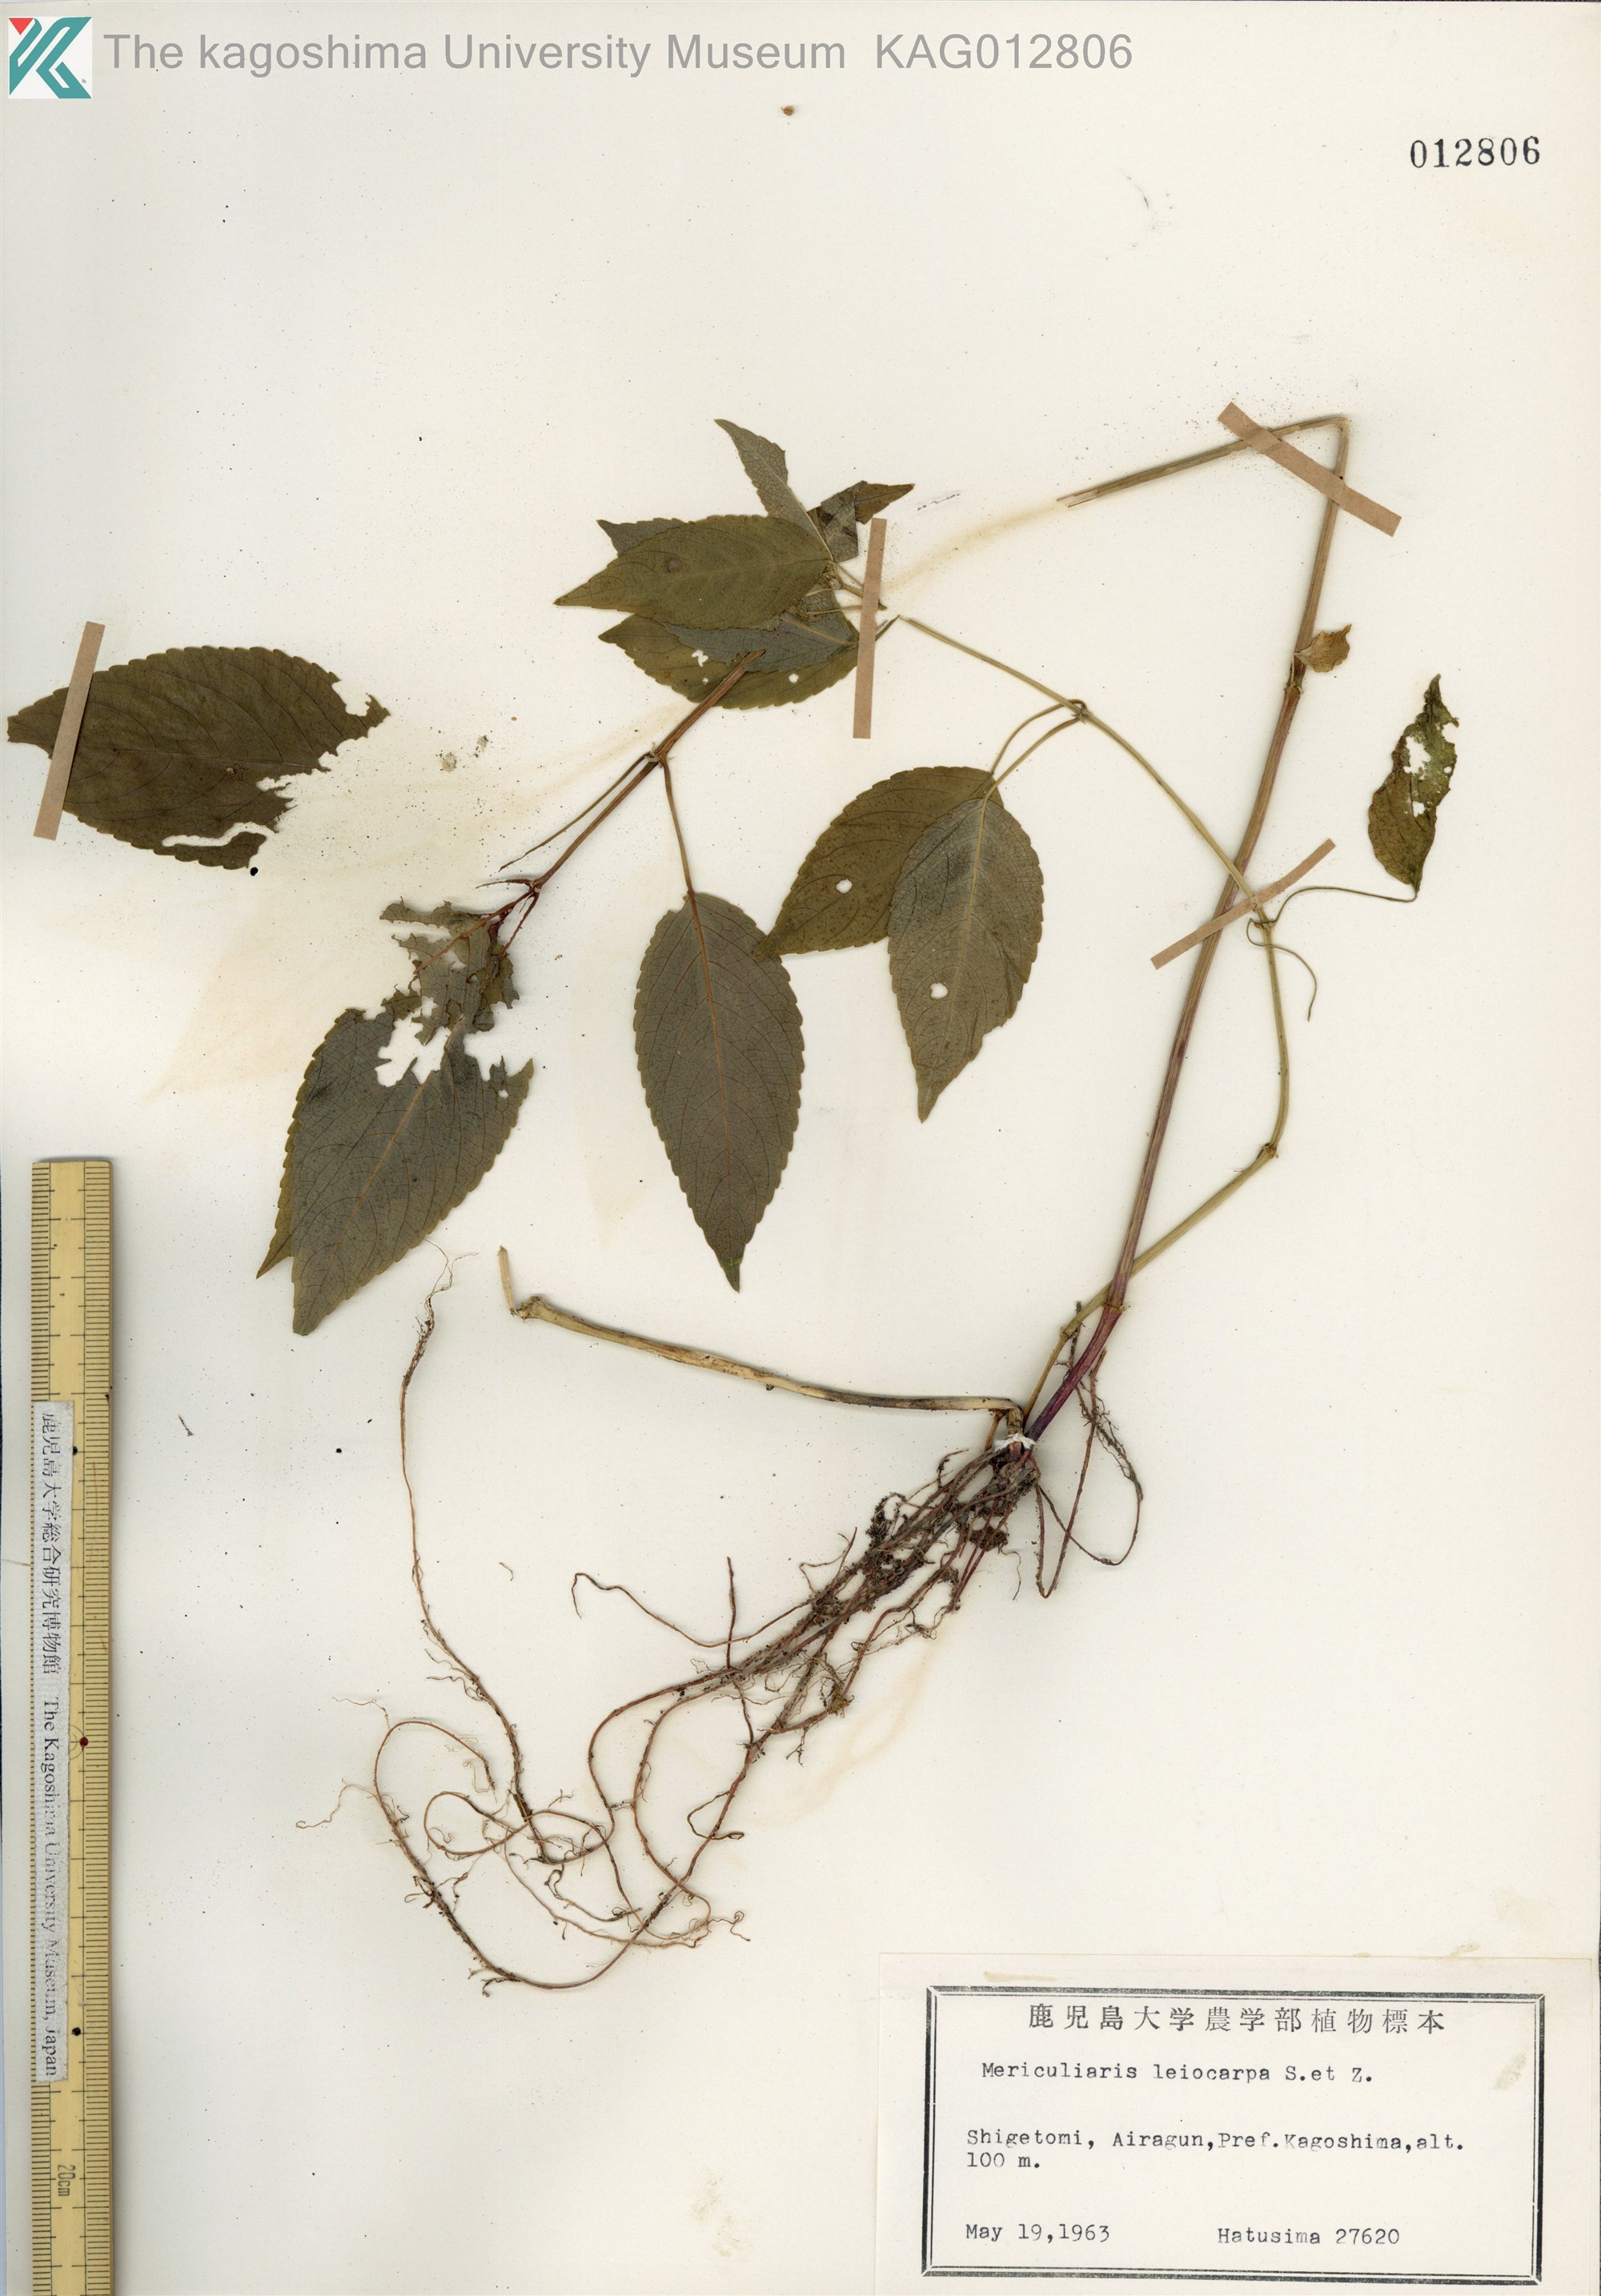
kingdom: Plantae
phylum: Tracheophyta
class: Magnoliopsida
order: Malpighiales
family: Euphorbiaceae
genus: Mercurialis
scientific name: Mercurialis leiocarpa
